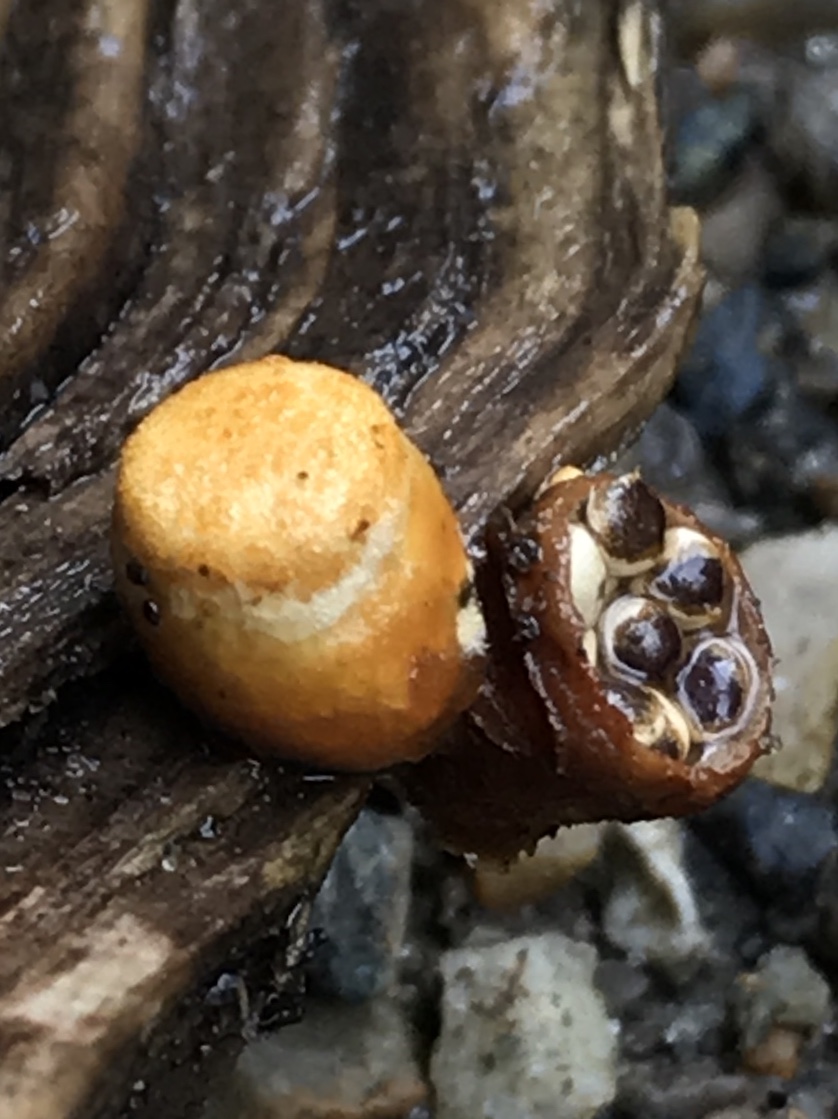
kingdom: Fungi
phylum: Basidiomycota
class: Agaricomycetes
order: Agaricales
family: Nidulariaceae
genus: Crucibulum
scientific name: Crucibulum crucibuliforme
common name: krukkesvamp
